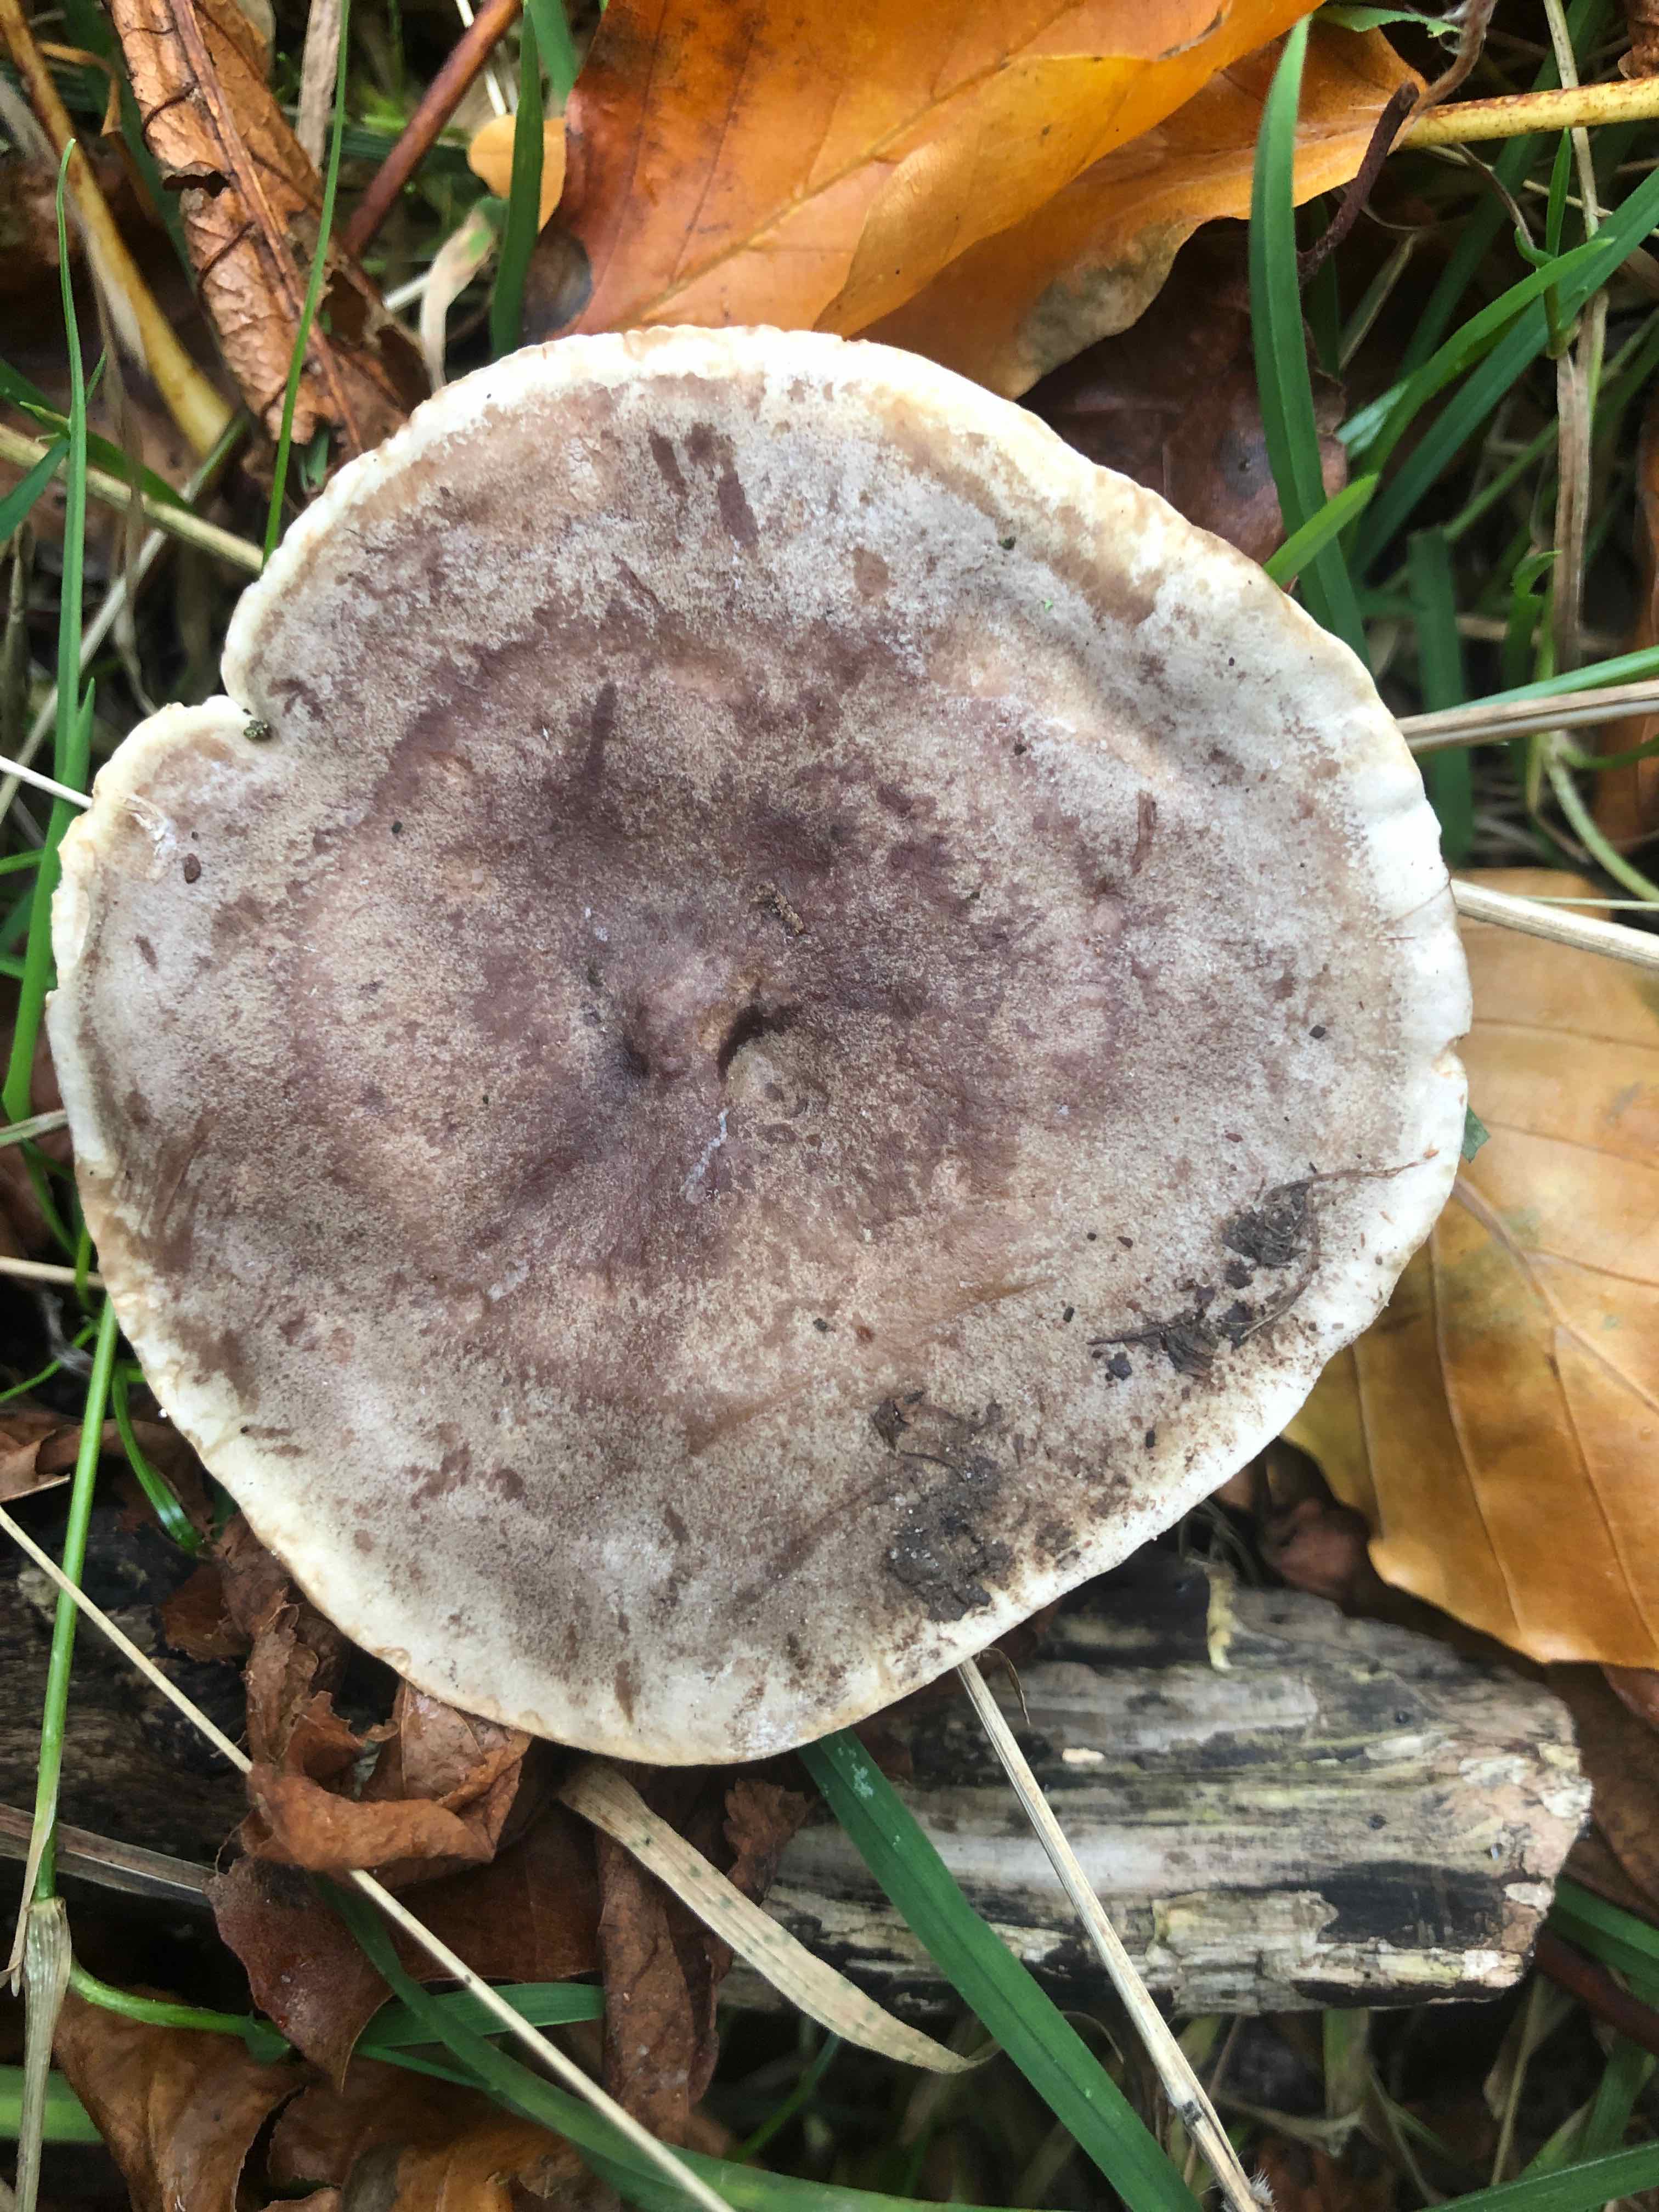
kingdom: Fungi
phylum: Basidiomycota
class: Agaricomycetes
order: Russulales
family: Russulaceae
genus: Lactarius
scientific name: Lactarius fluens
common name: lysrandet mælkehat
